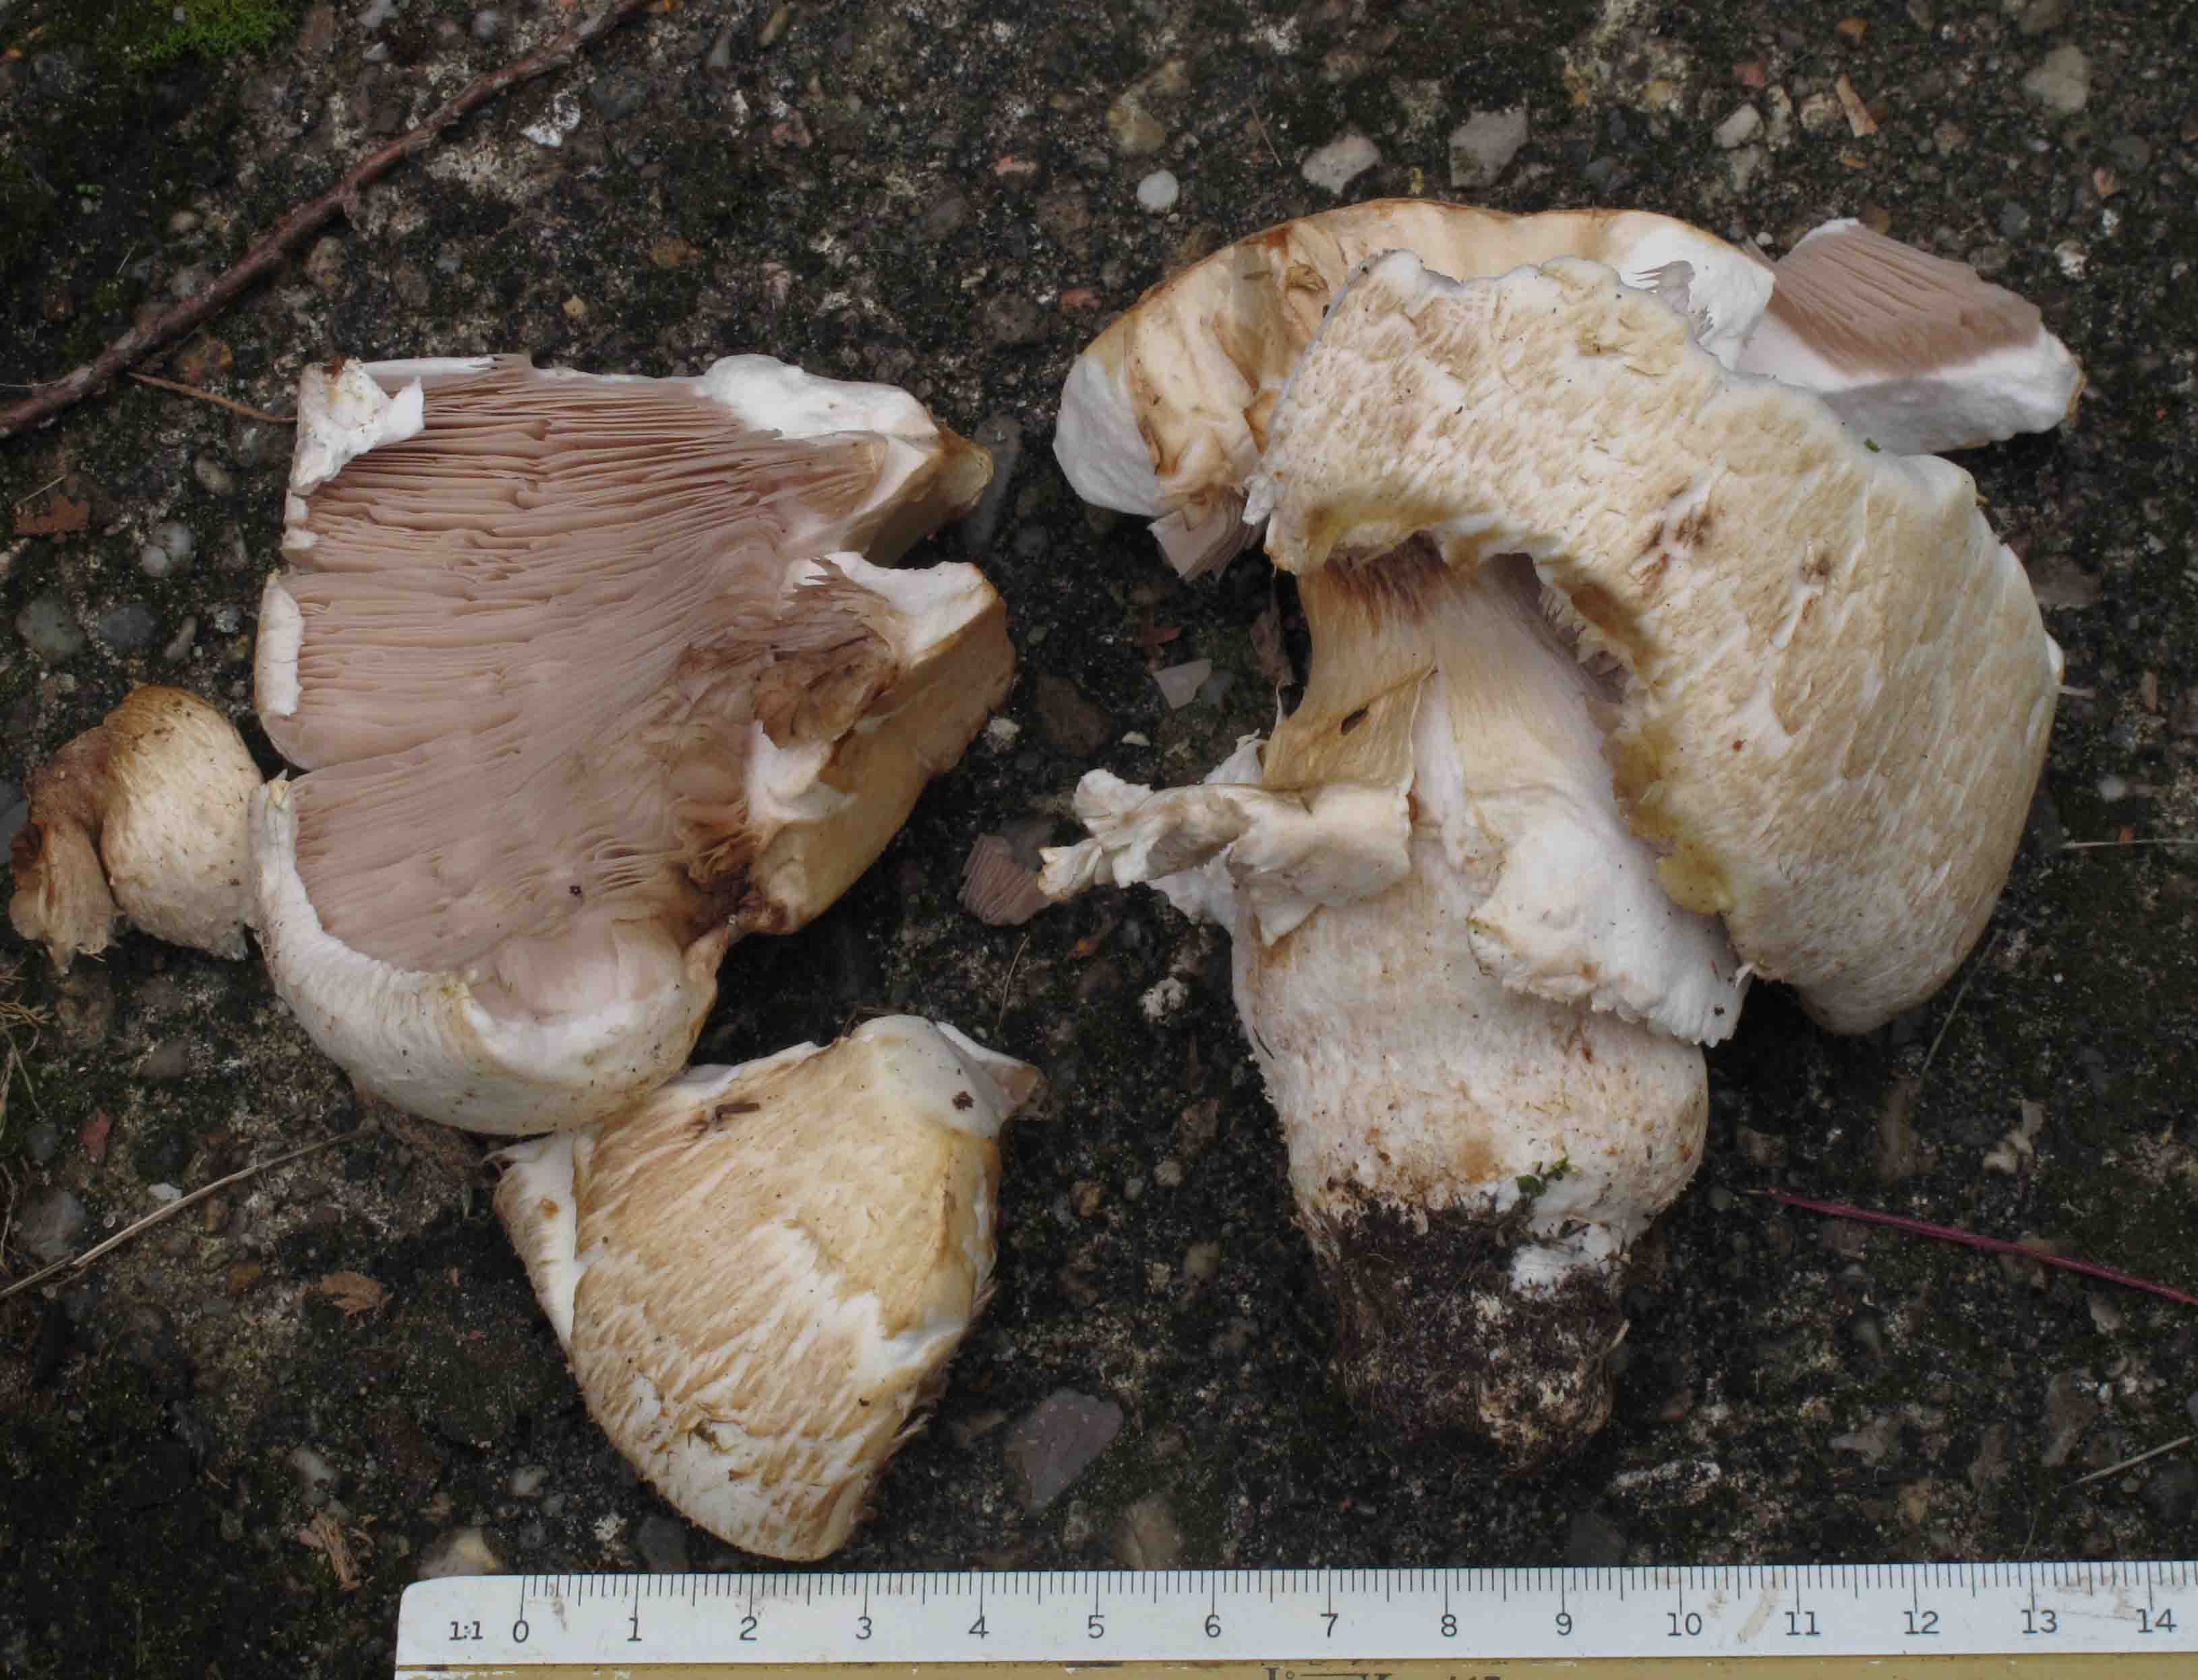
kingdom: Fungi
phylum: Basidiomycota
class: Agaricomycetes
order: Agaricales
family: Agaricaceae
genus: Agaricus
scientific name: Agaricus crocodilinus
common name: landsby-champignon
